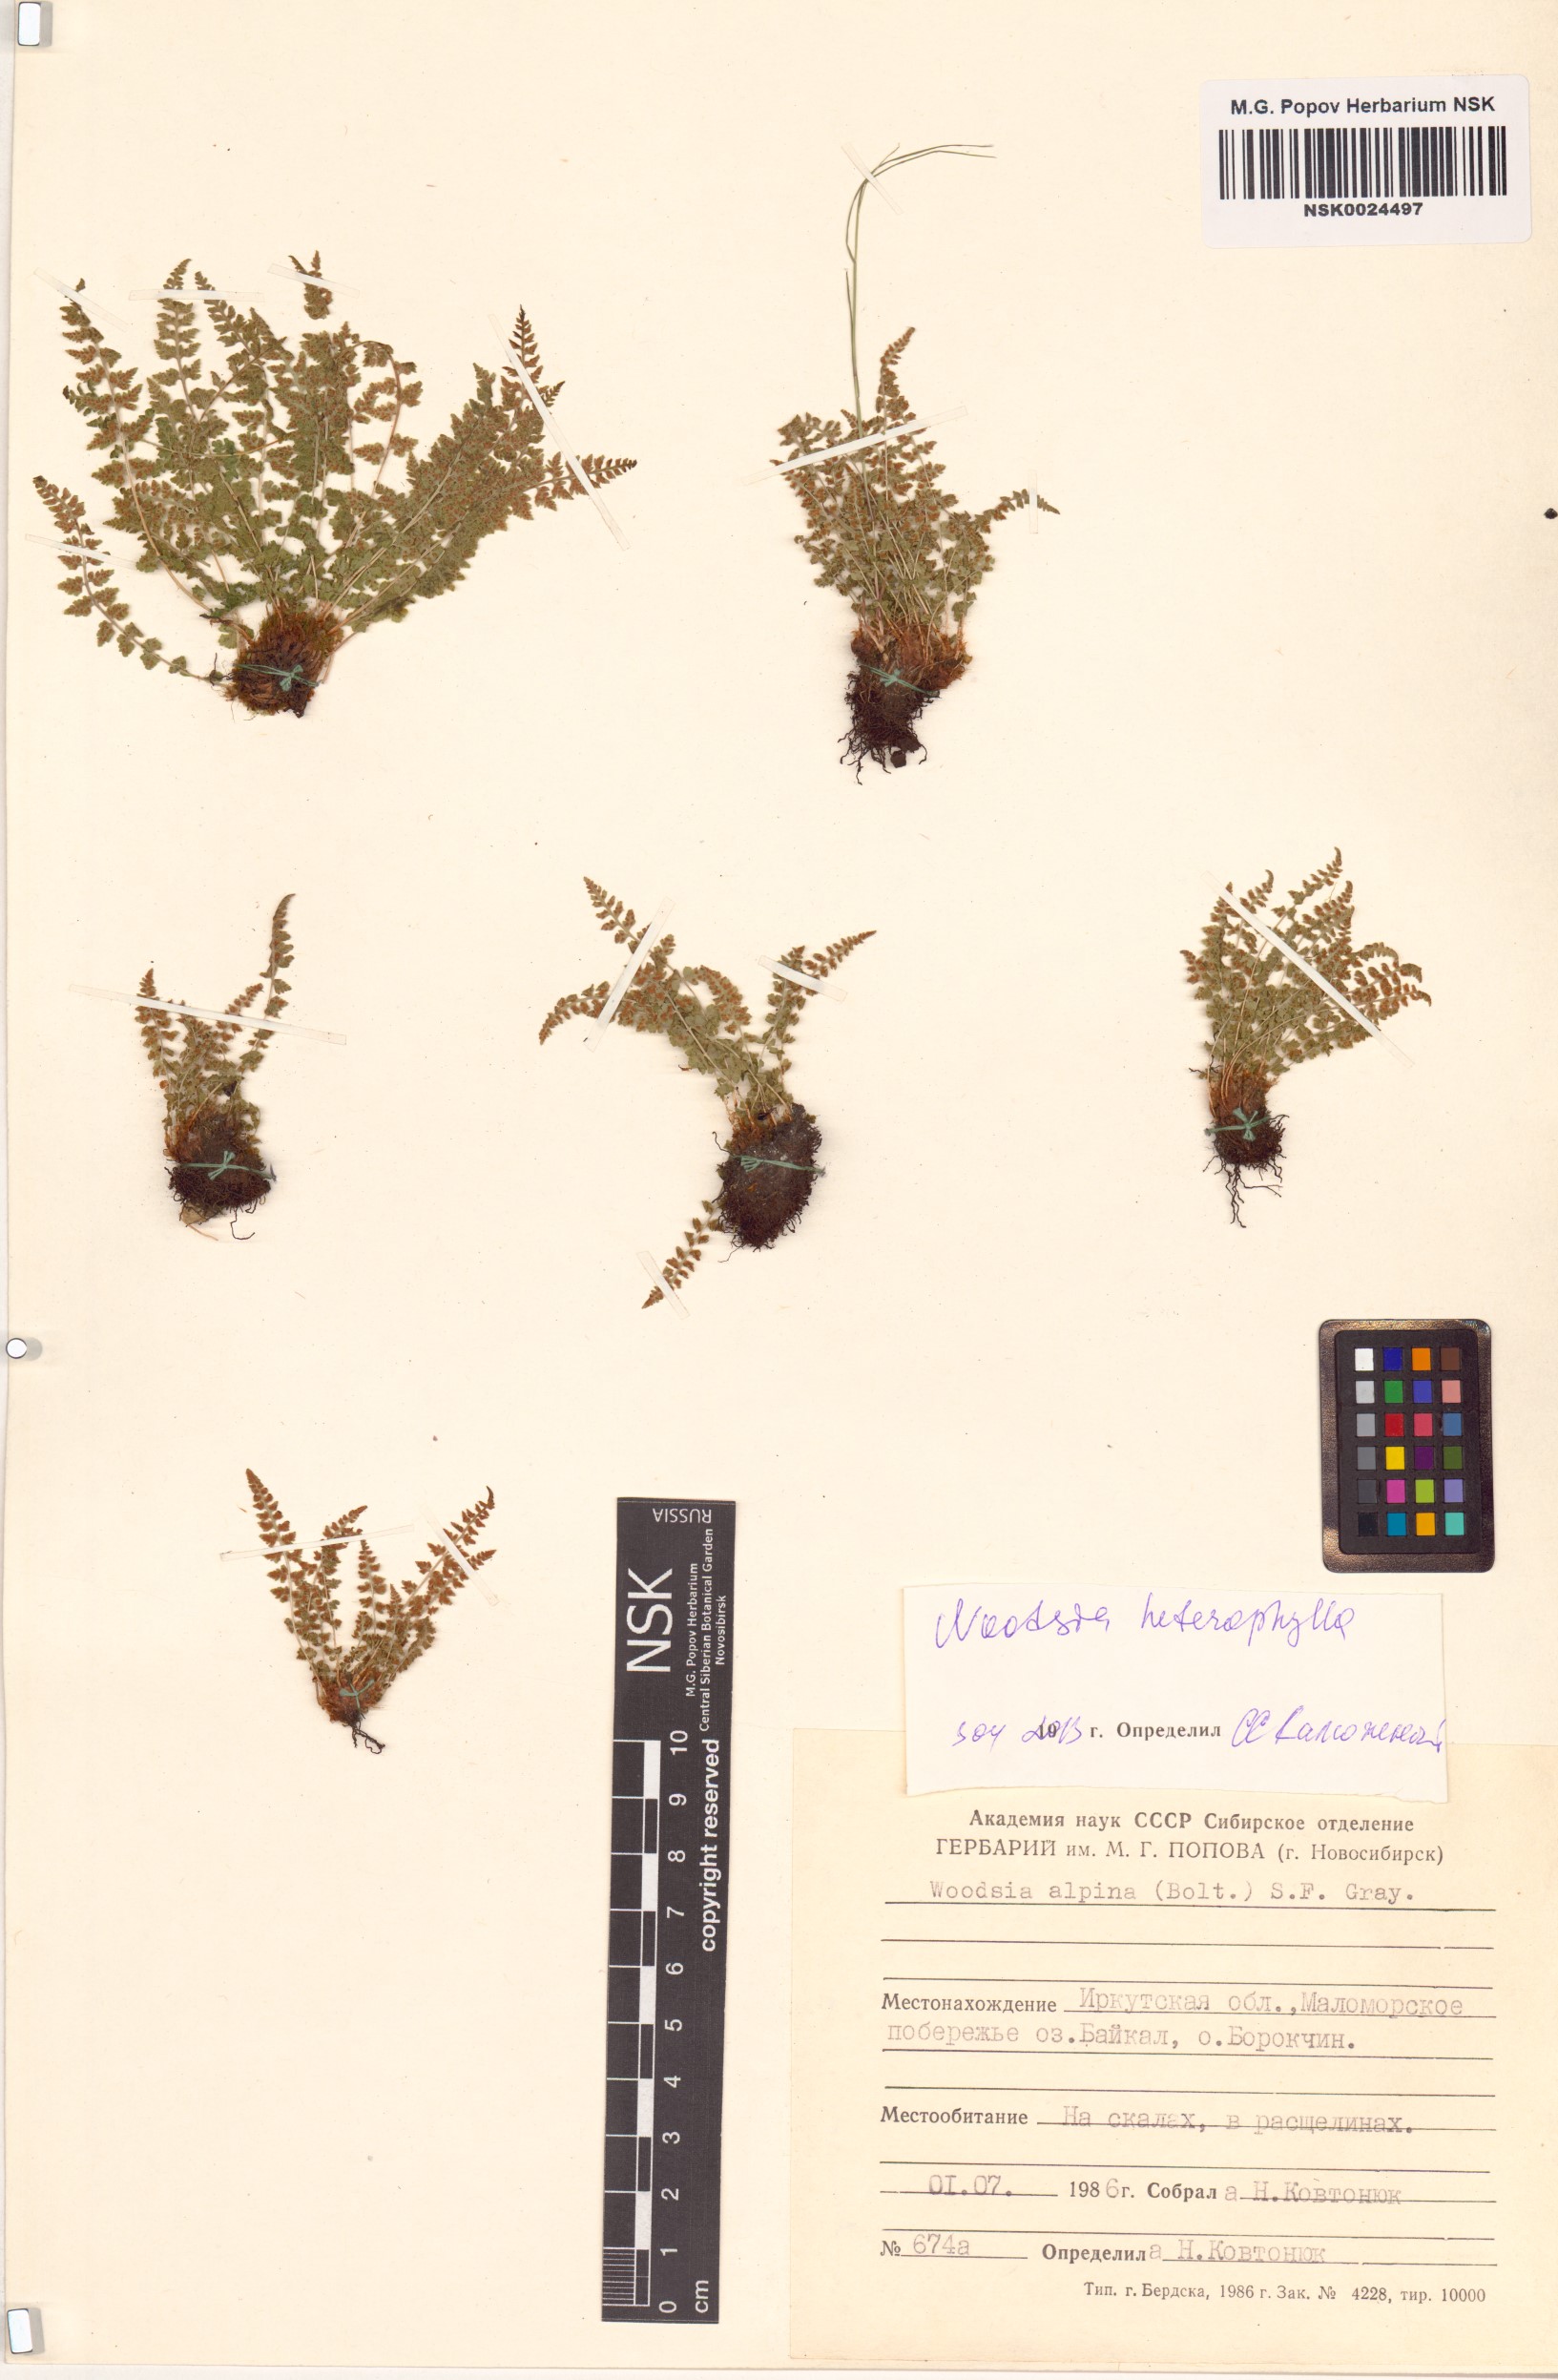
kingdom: Plantae
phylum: Tracheophyta
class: Polypodiopsida
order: Polypodiales
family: Woodsiaceae
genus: Woodsia
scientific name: Woodsia pulchella
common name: Graceful woodsia
